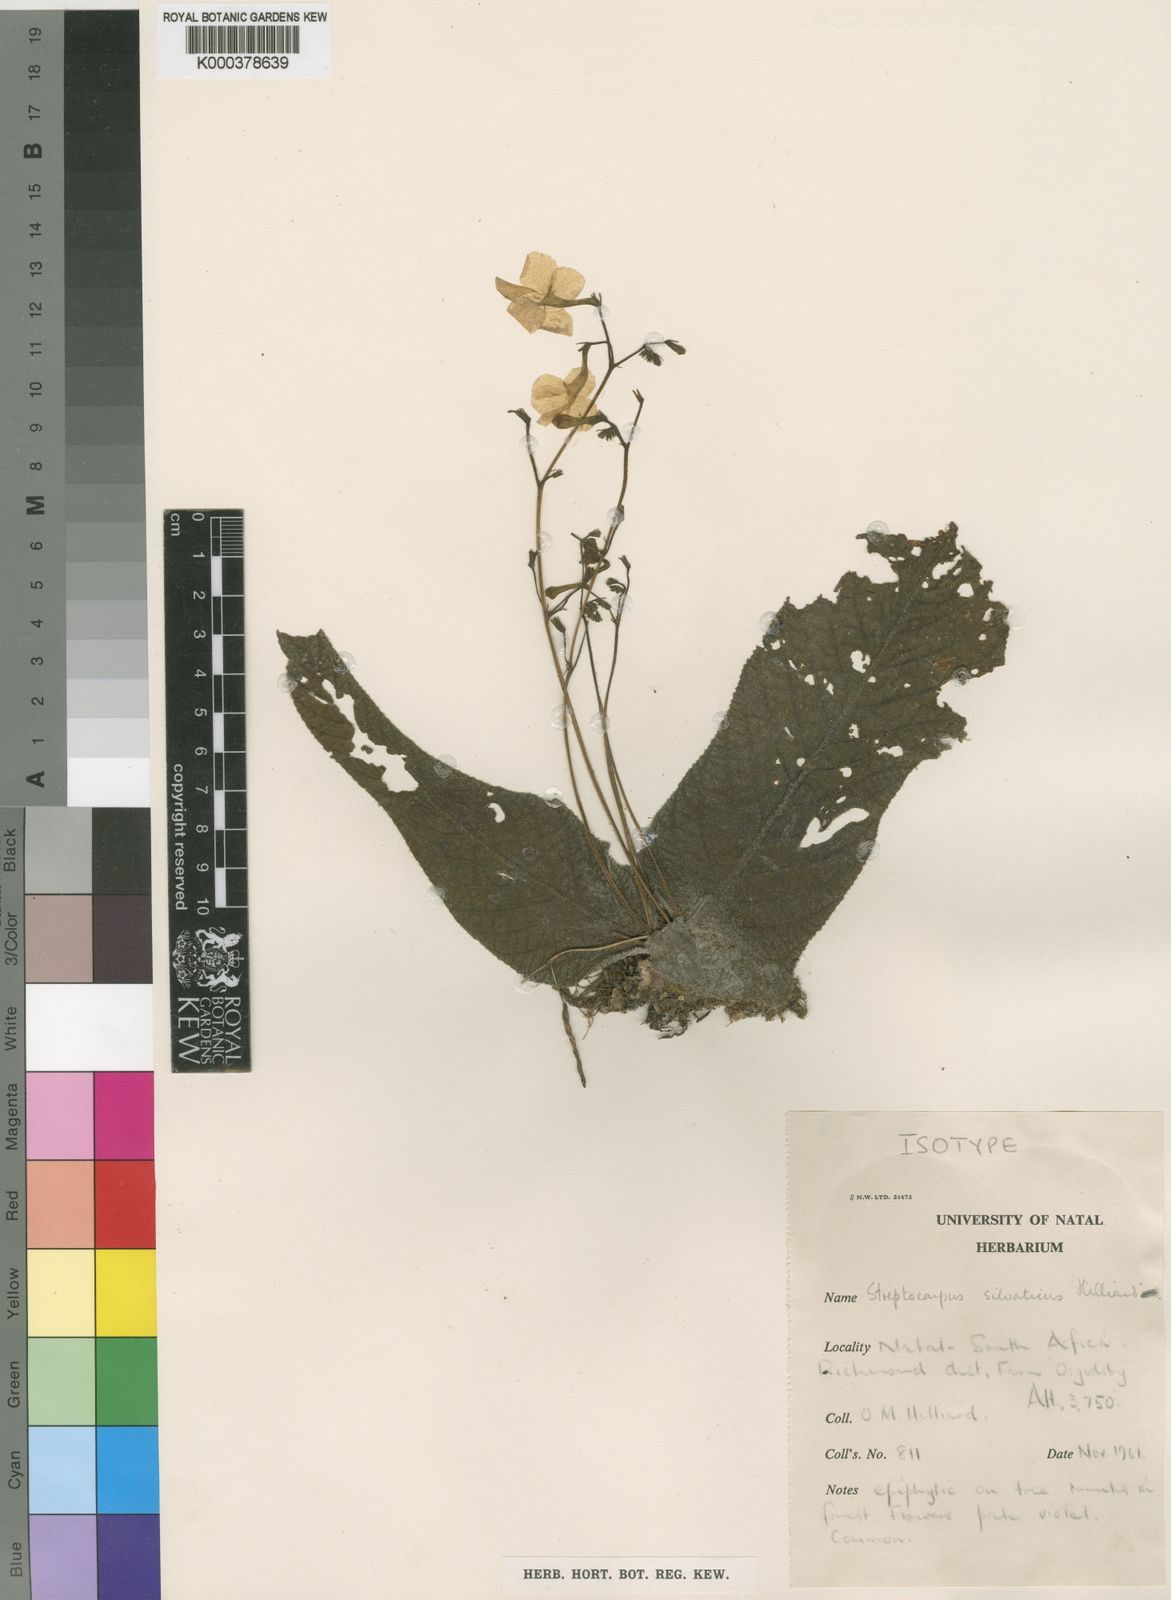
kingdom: Plantae
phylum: Tracheophyta
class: Magnoliopsida
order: Lamiales
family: Gesneriaceae
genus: Streptocarpus
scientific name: Streptocarpus silvaticus
